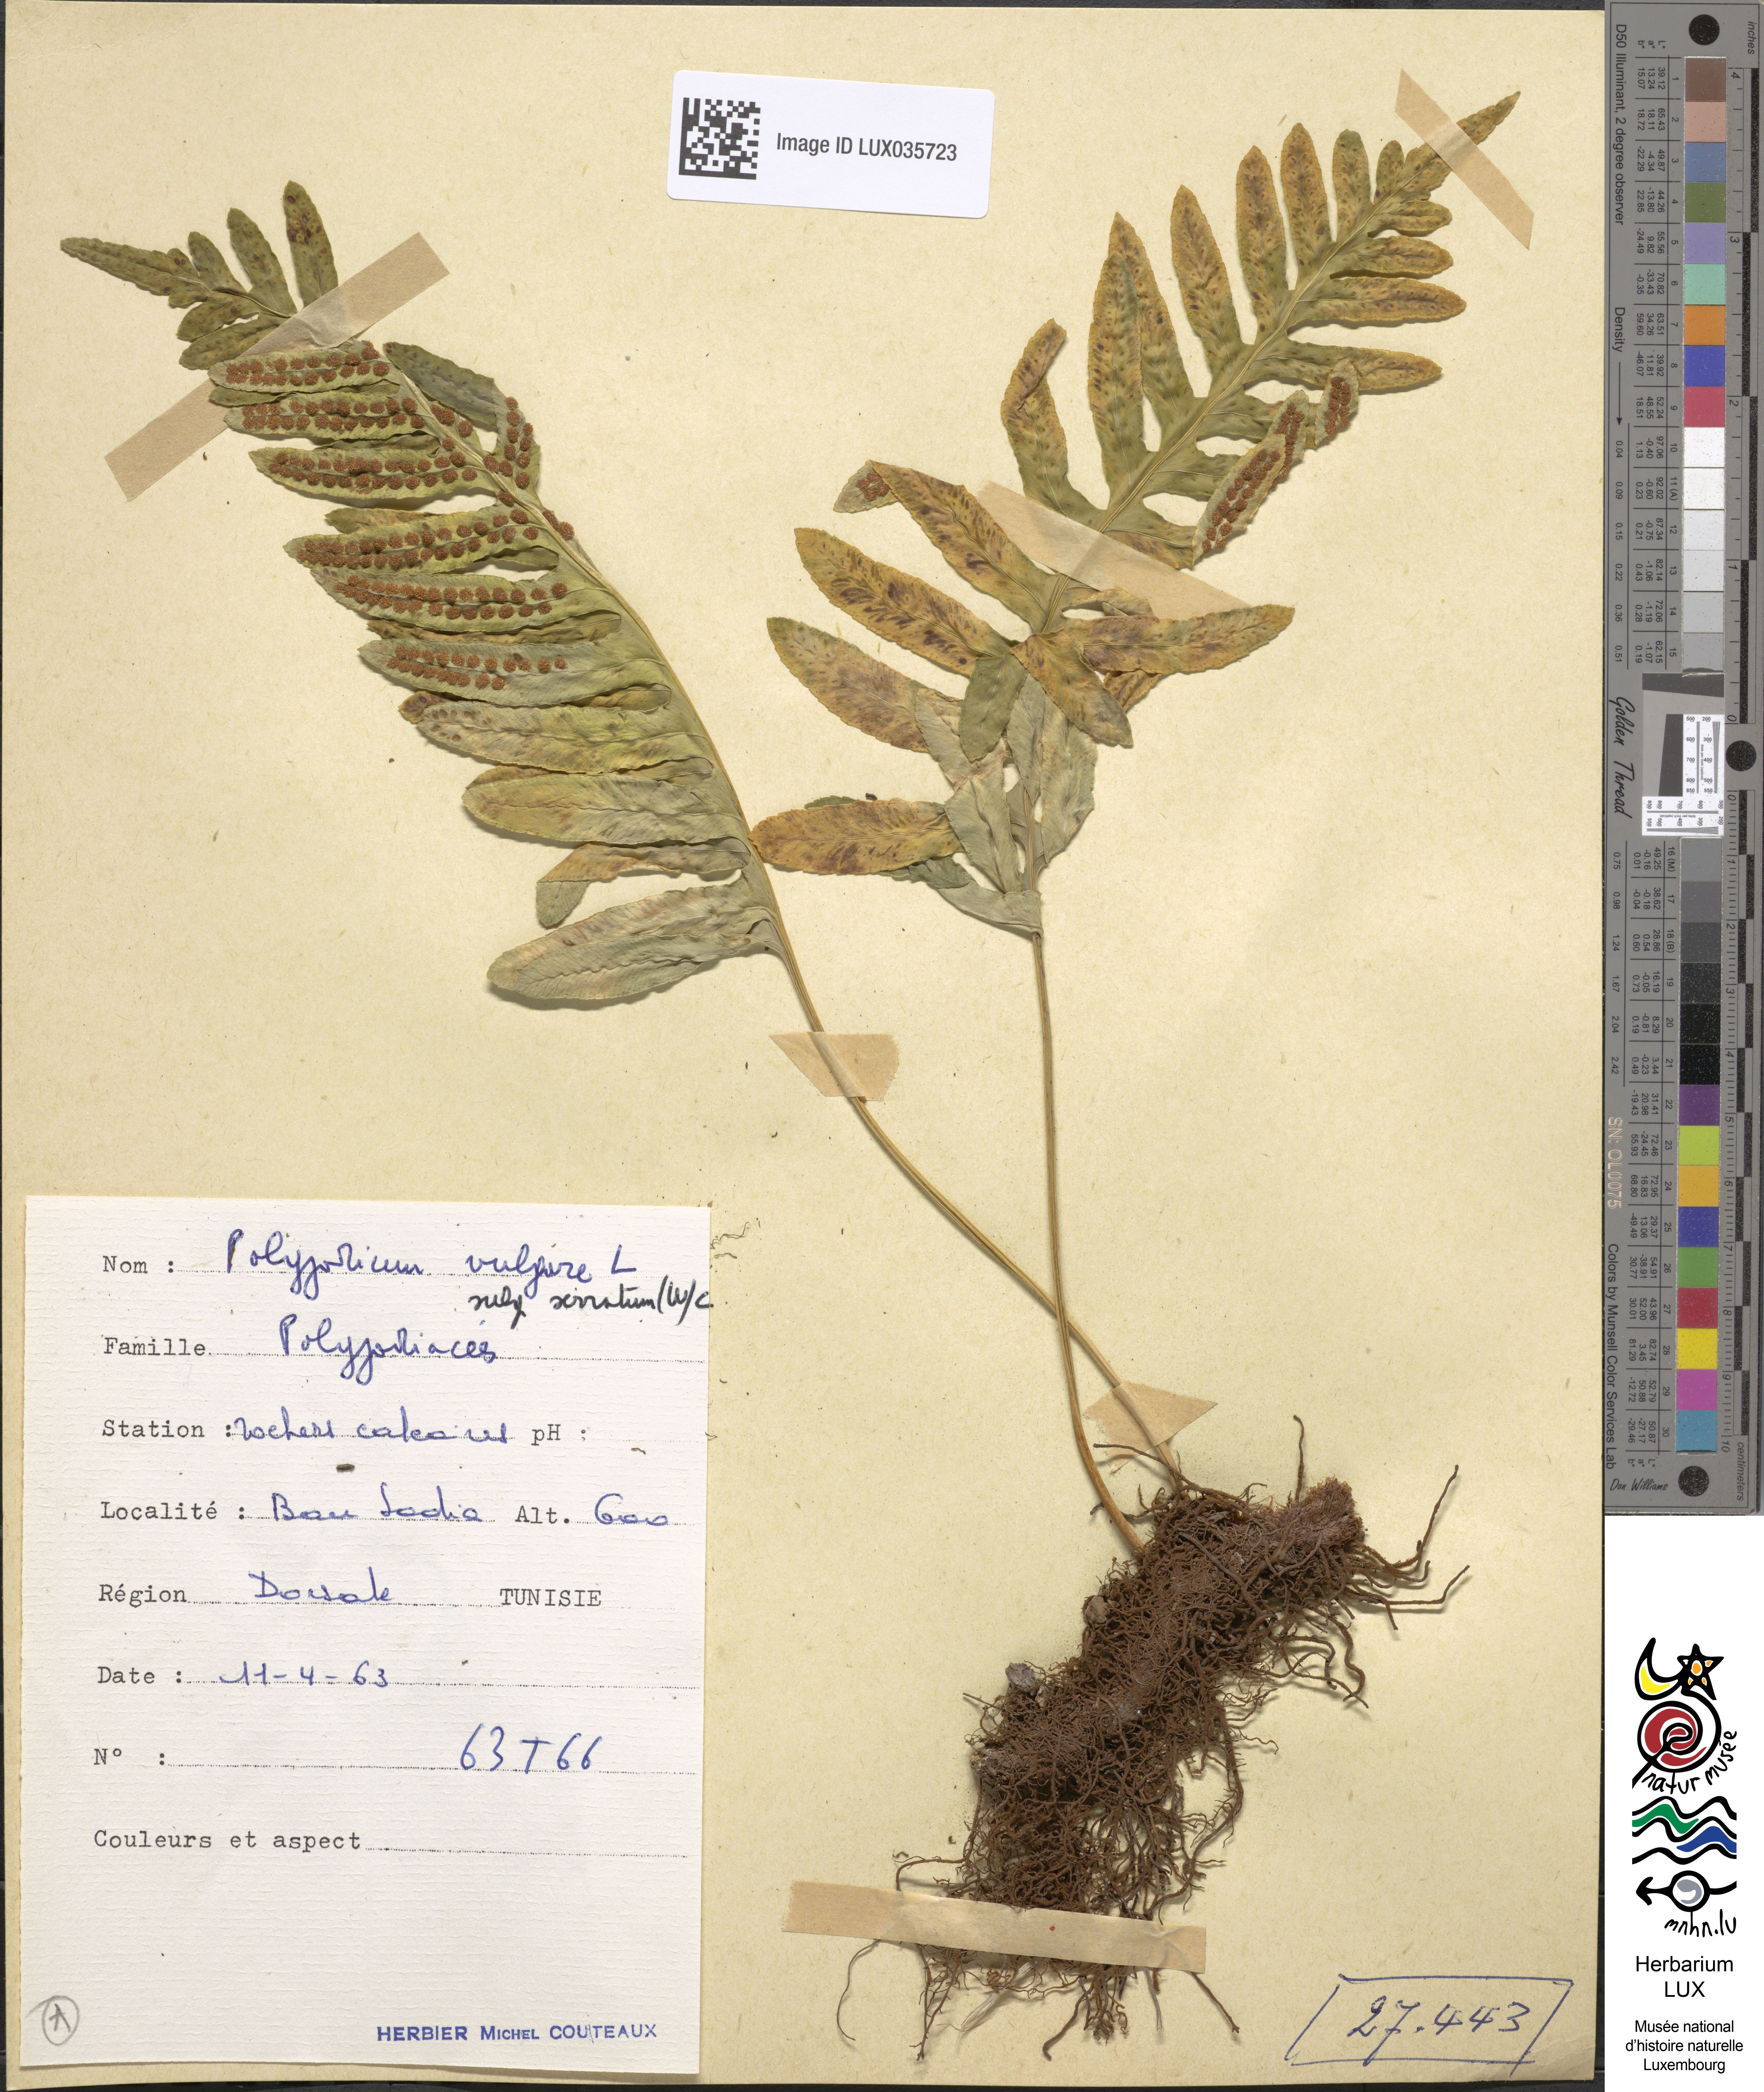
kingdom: Plantae
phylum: Tracheophyta
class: Polypodiopsida
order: Polypodiales
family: Polypodiaceae
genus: Polypodium
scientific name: Polypodium cambricum
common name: Southern polypody
